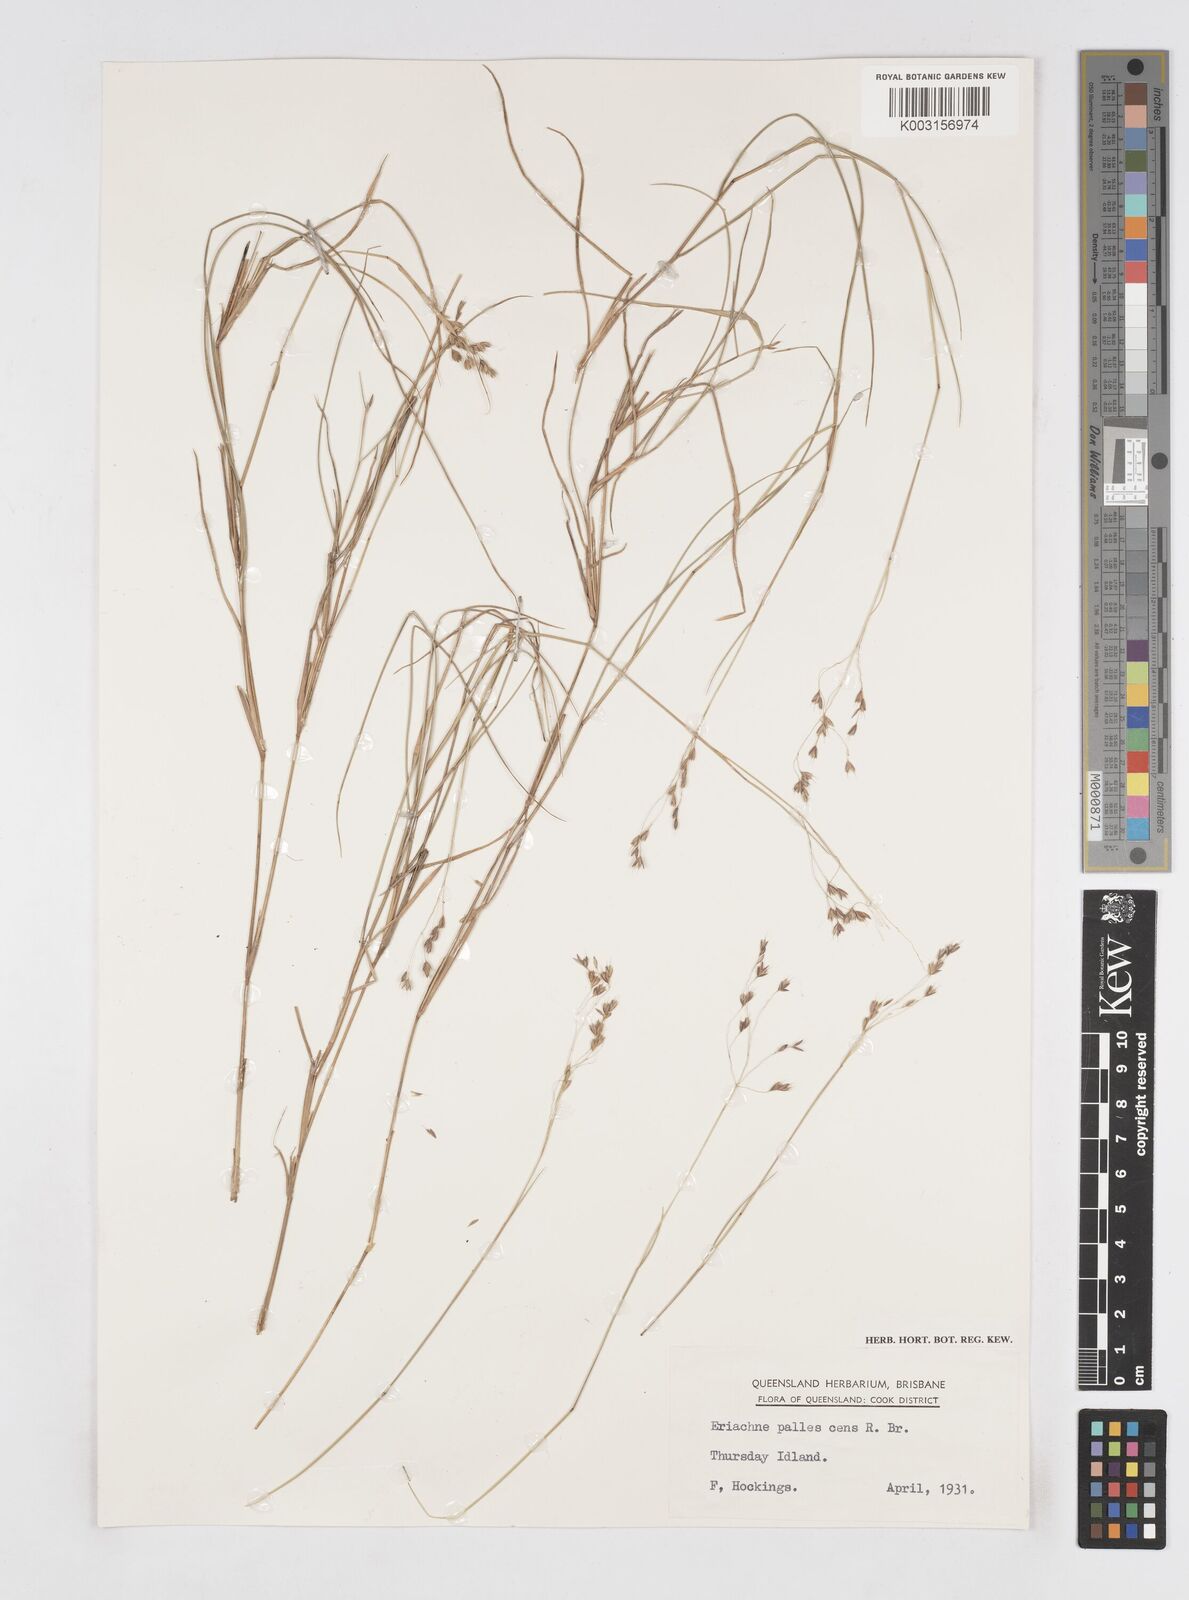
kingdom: Plantae
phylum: Tracheophyta
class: Liliopsida
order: Poales
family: Poaceae
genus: Eriachne
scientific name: Eriachne pallescens
